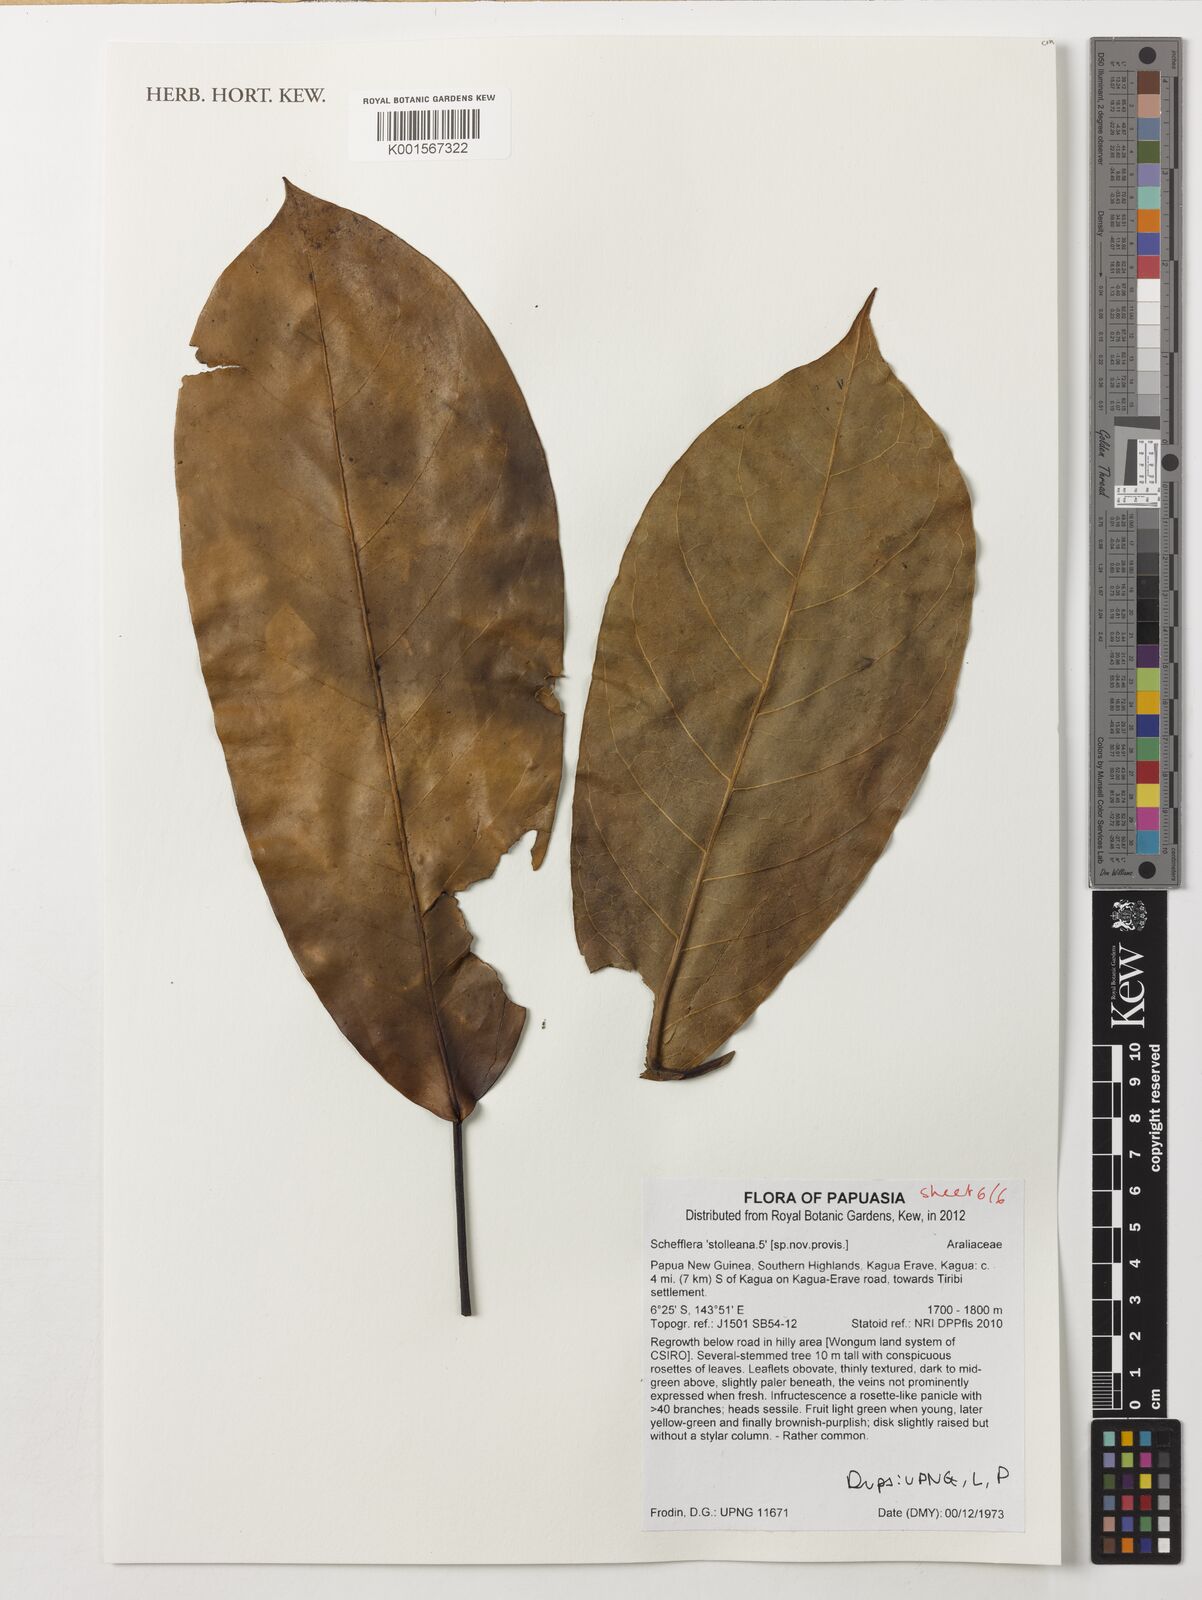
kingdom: Plantae
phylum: Tracheophyta
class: Magnoliopsida
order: Apiales
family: Araliaceae
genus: Heptapleurum
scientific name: Heptapleurum stolleanum
